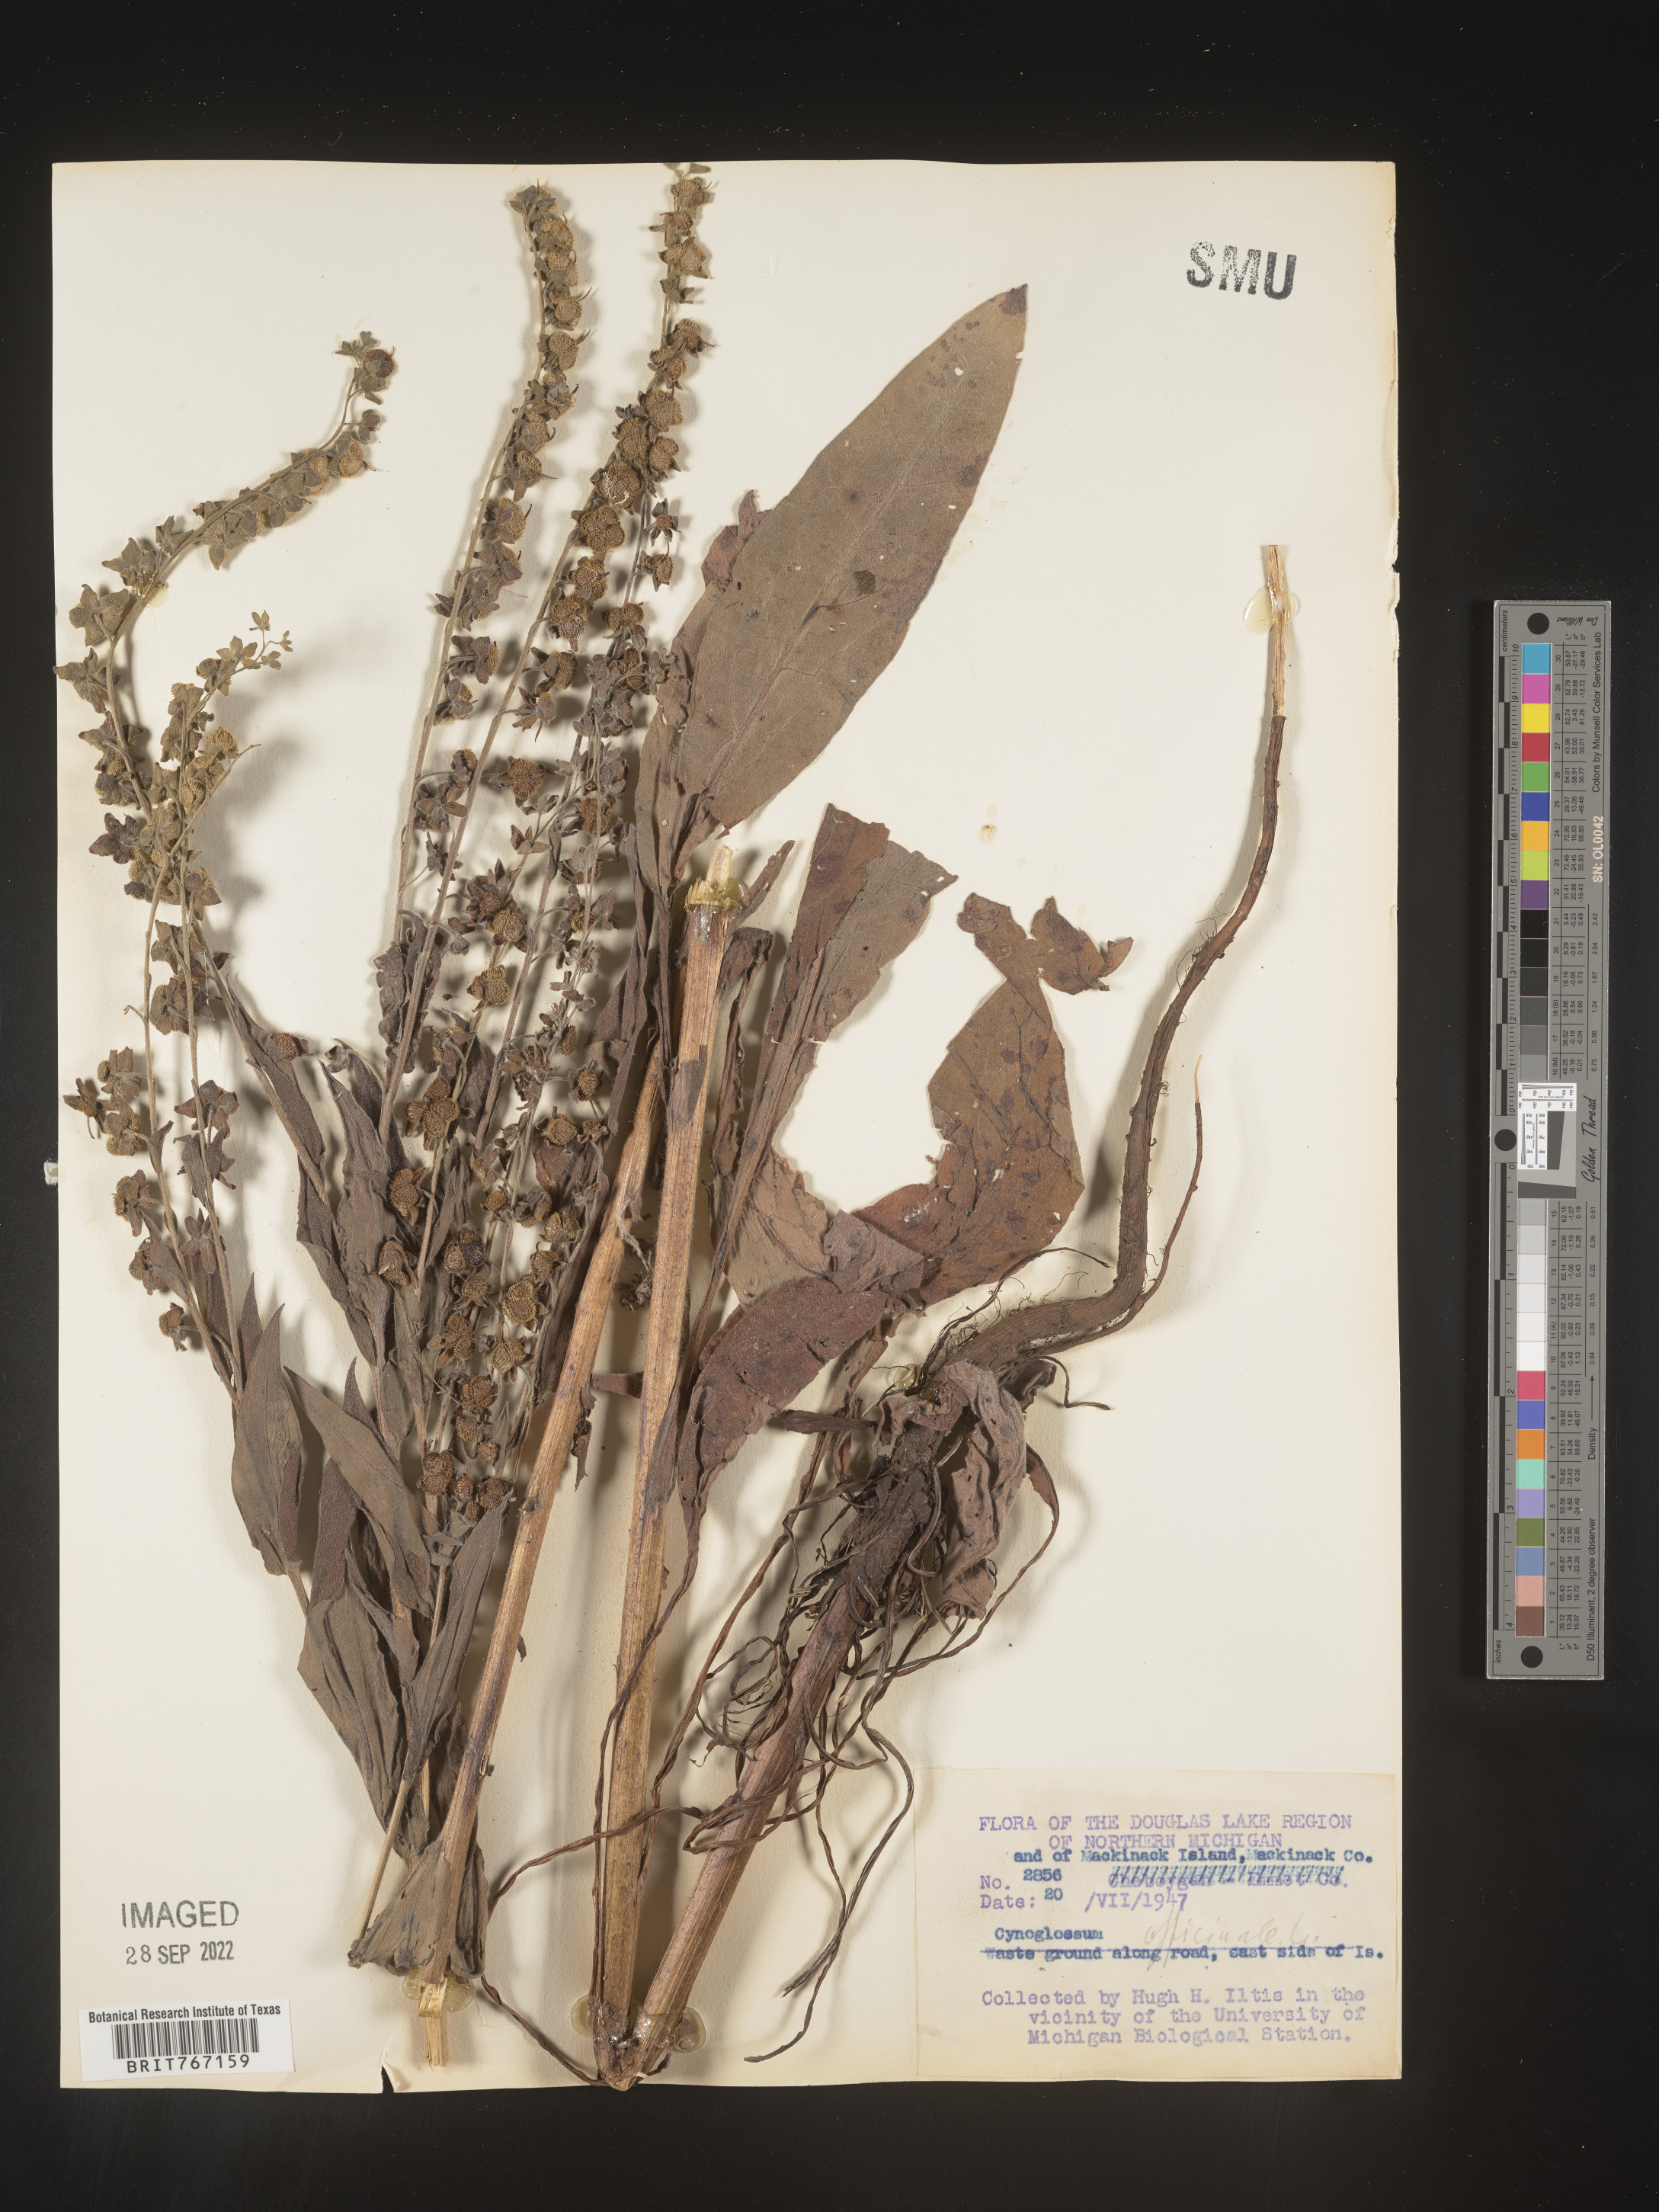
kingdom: Plantae
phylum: Tracheophyta
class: Magnoliopsida
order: Boraginales
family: Boraginaceae
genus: Cynoglossum
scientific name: Cynoglossum officinale
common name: Hound's-tongue
